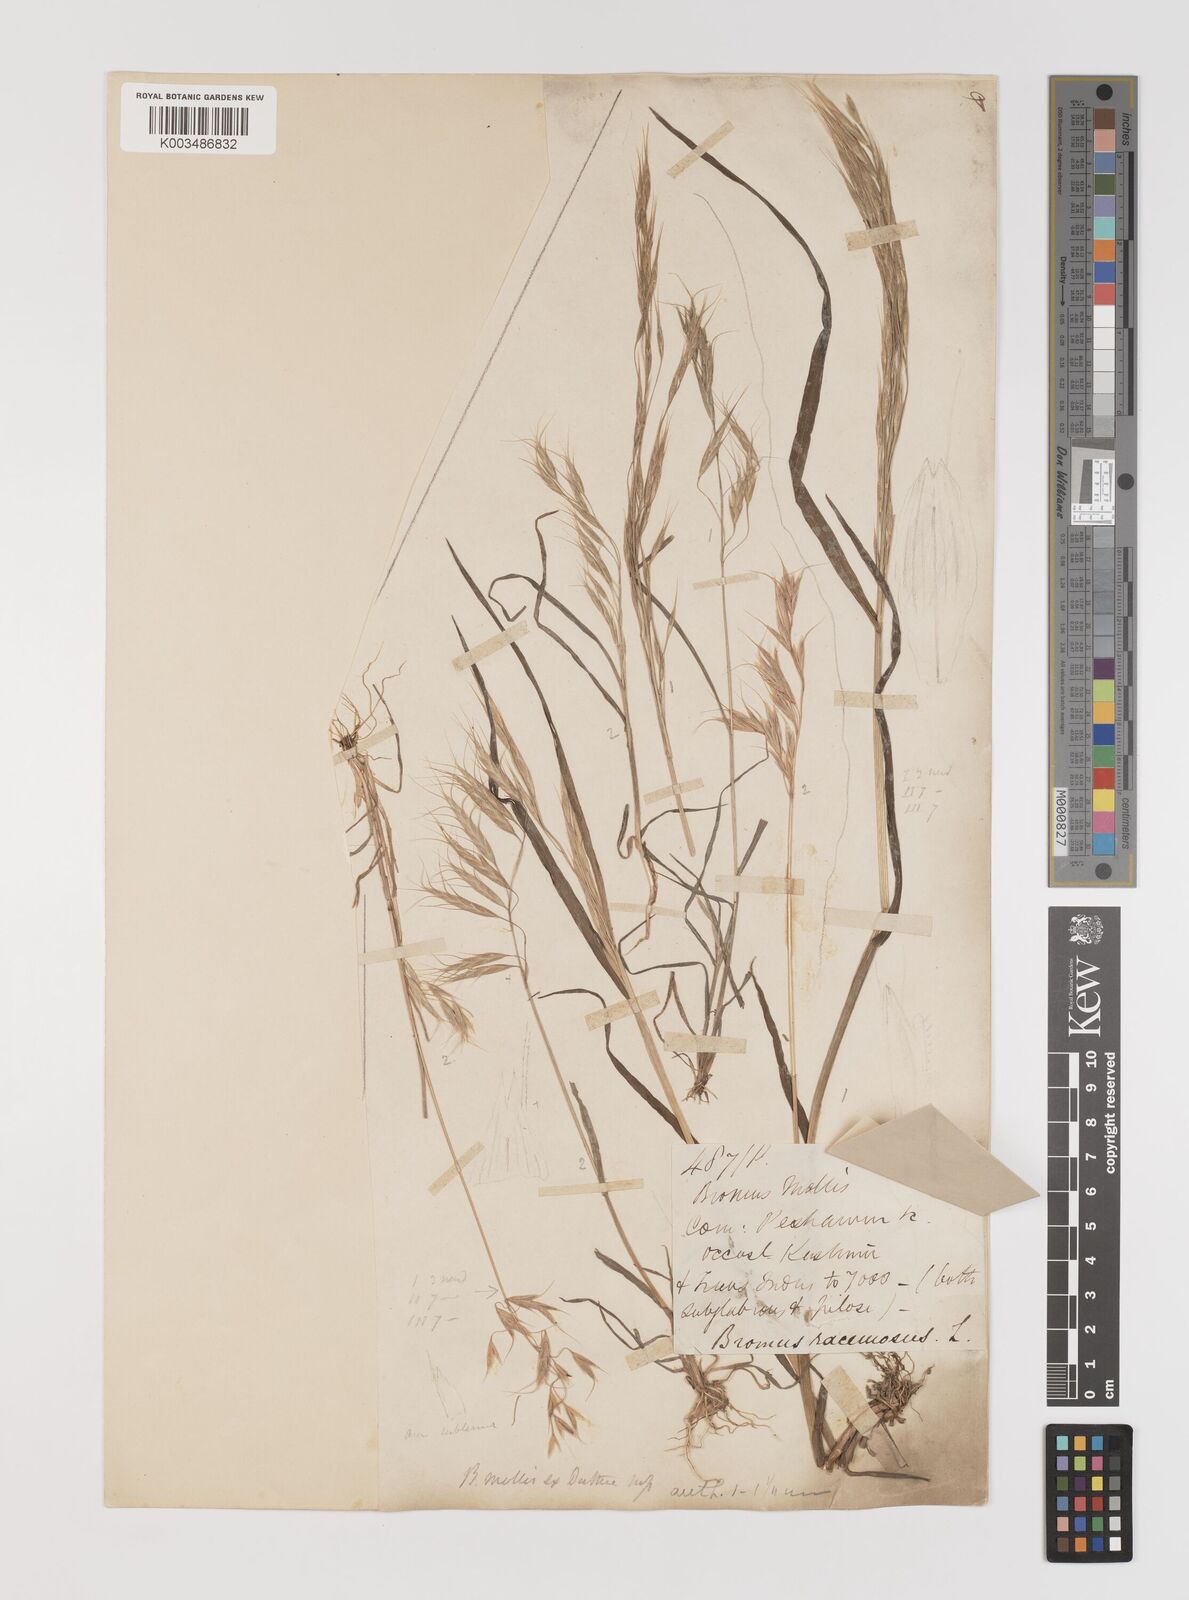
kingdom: Plantae
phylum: Tracheophyta
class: Liliopsida
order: Poales
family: Poaceae
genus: Bromus
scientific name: Bromus
